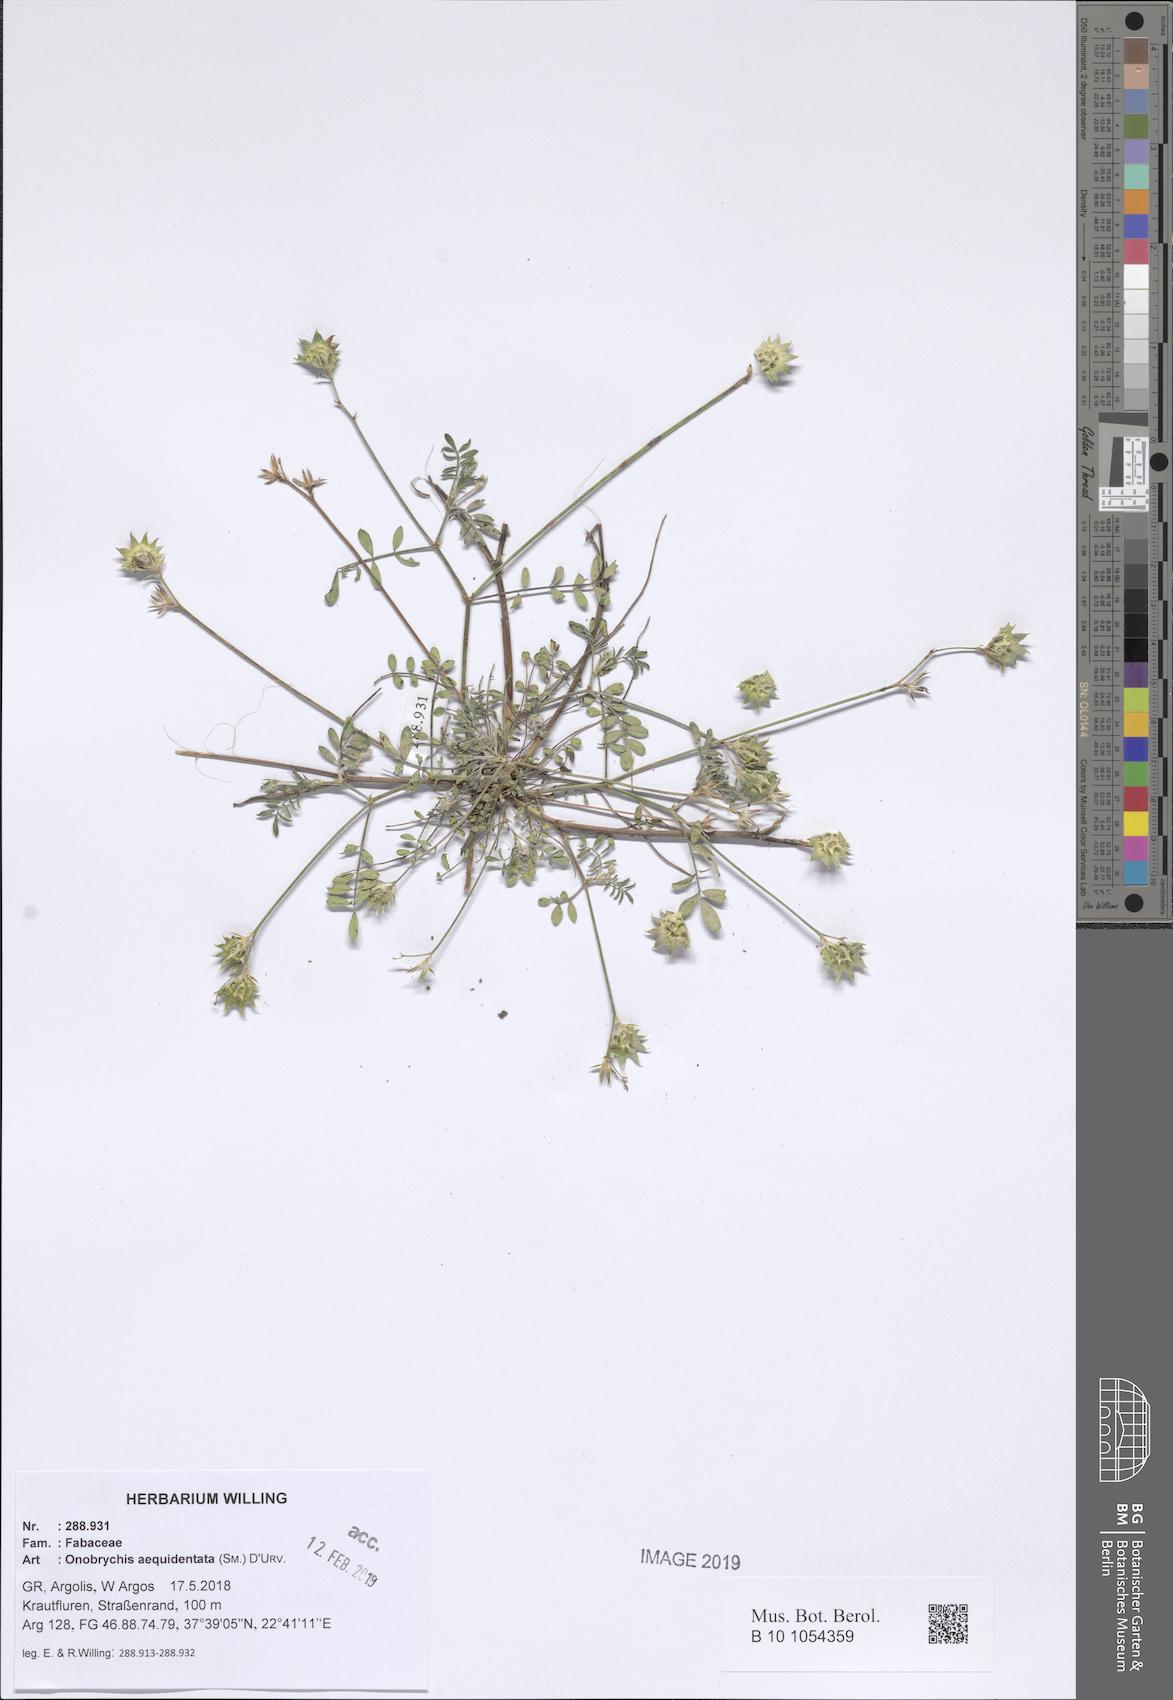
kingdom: Plantae
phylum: Tracheophyta
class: Magnoliopsida
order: Fabales
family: Fabaceae
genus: Onobrychis
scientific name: Onobrychis aequidentata
